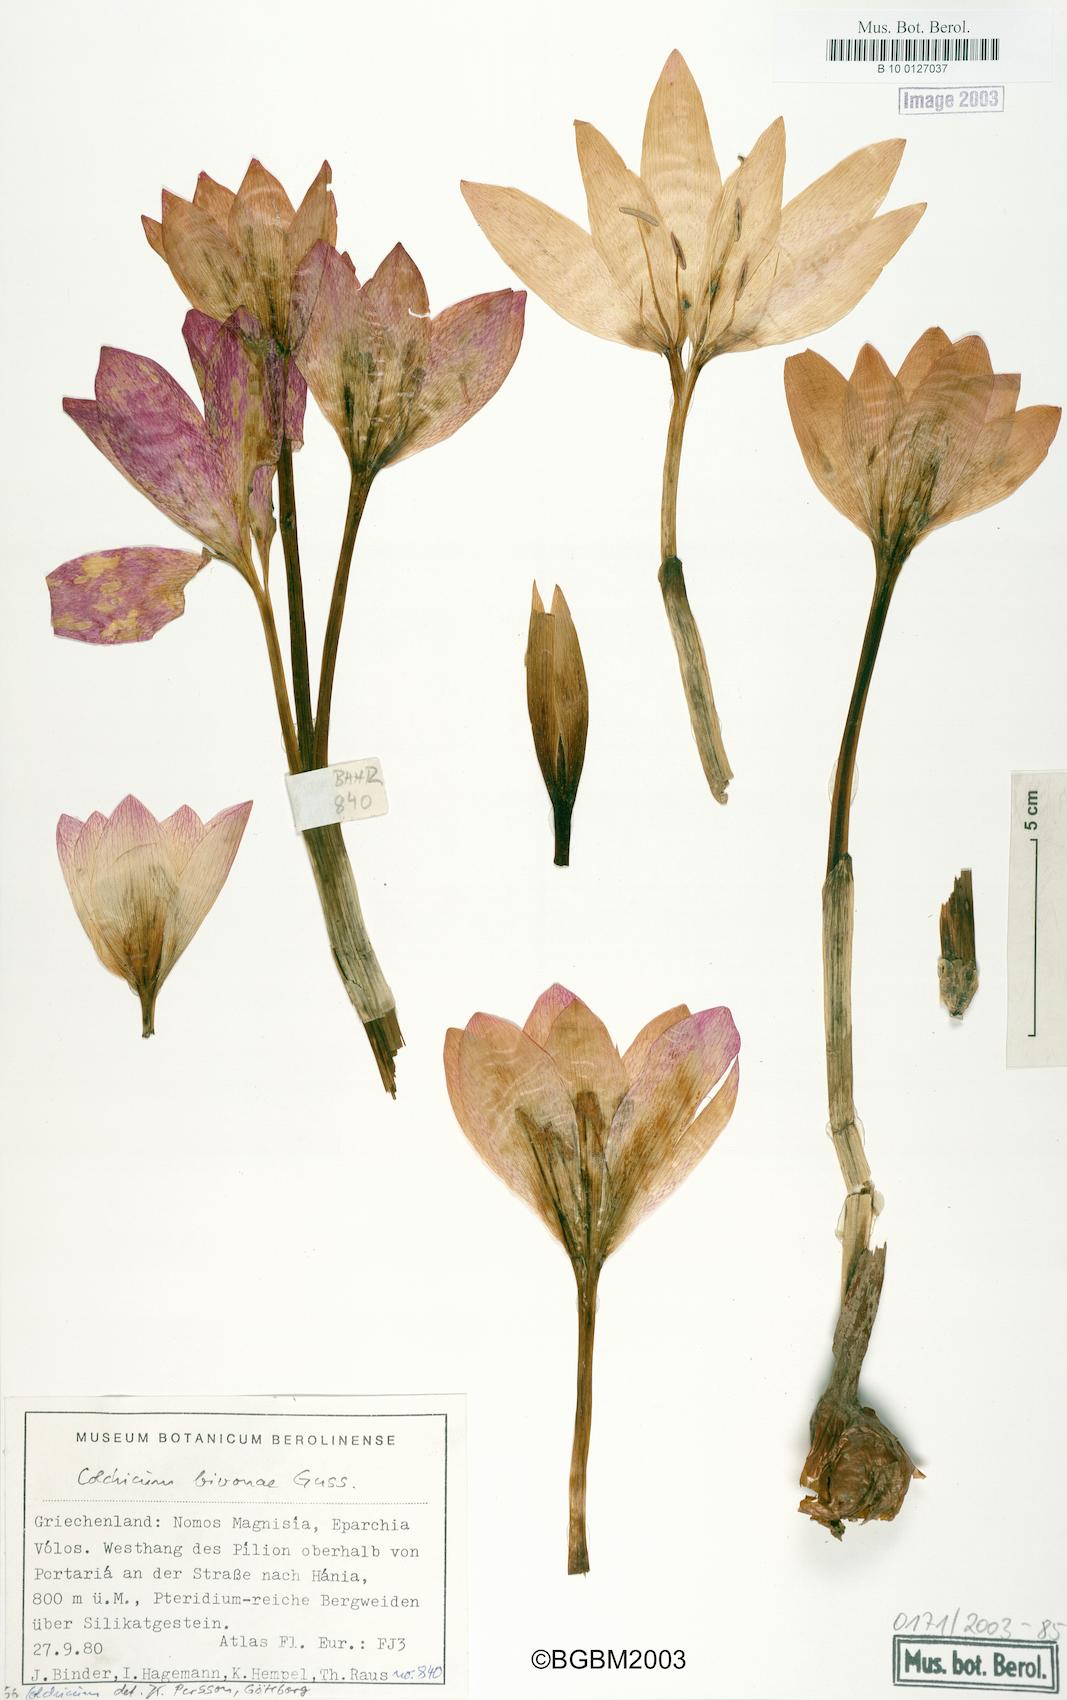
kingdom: Plantae
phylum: Tracheophyta
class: Liliopsida
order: Liliales
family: Colchicaceae
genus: Colchicum
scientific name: Colchicum bivonae
